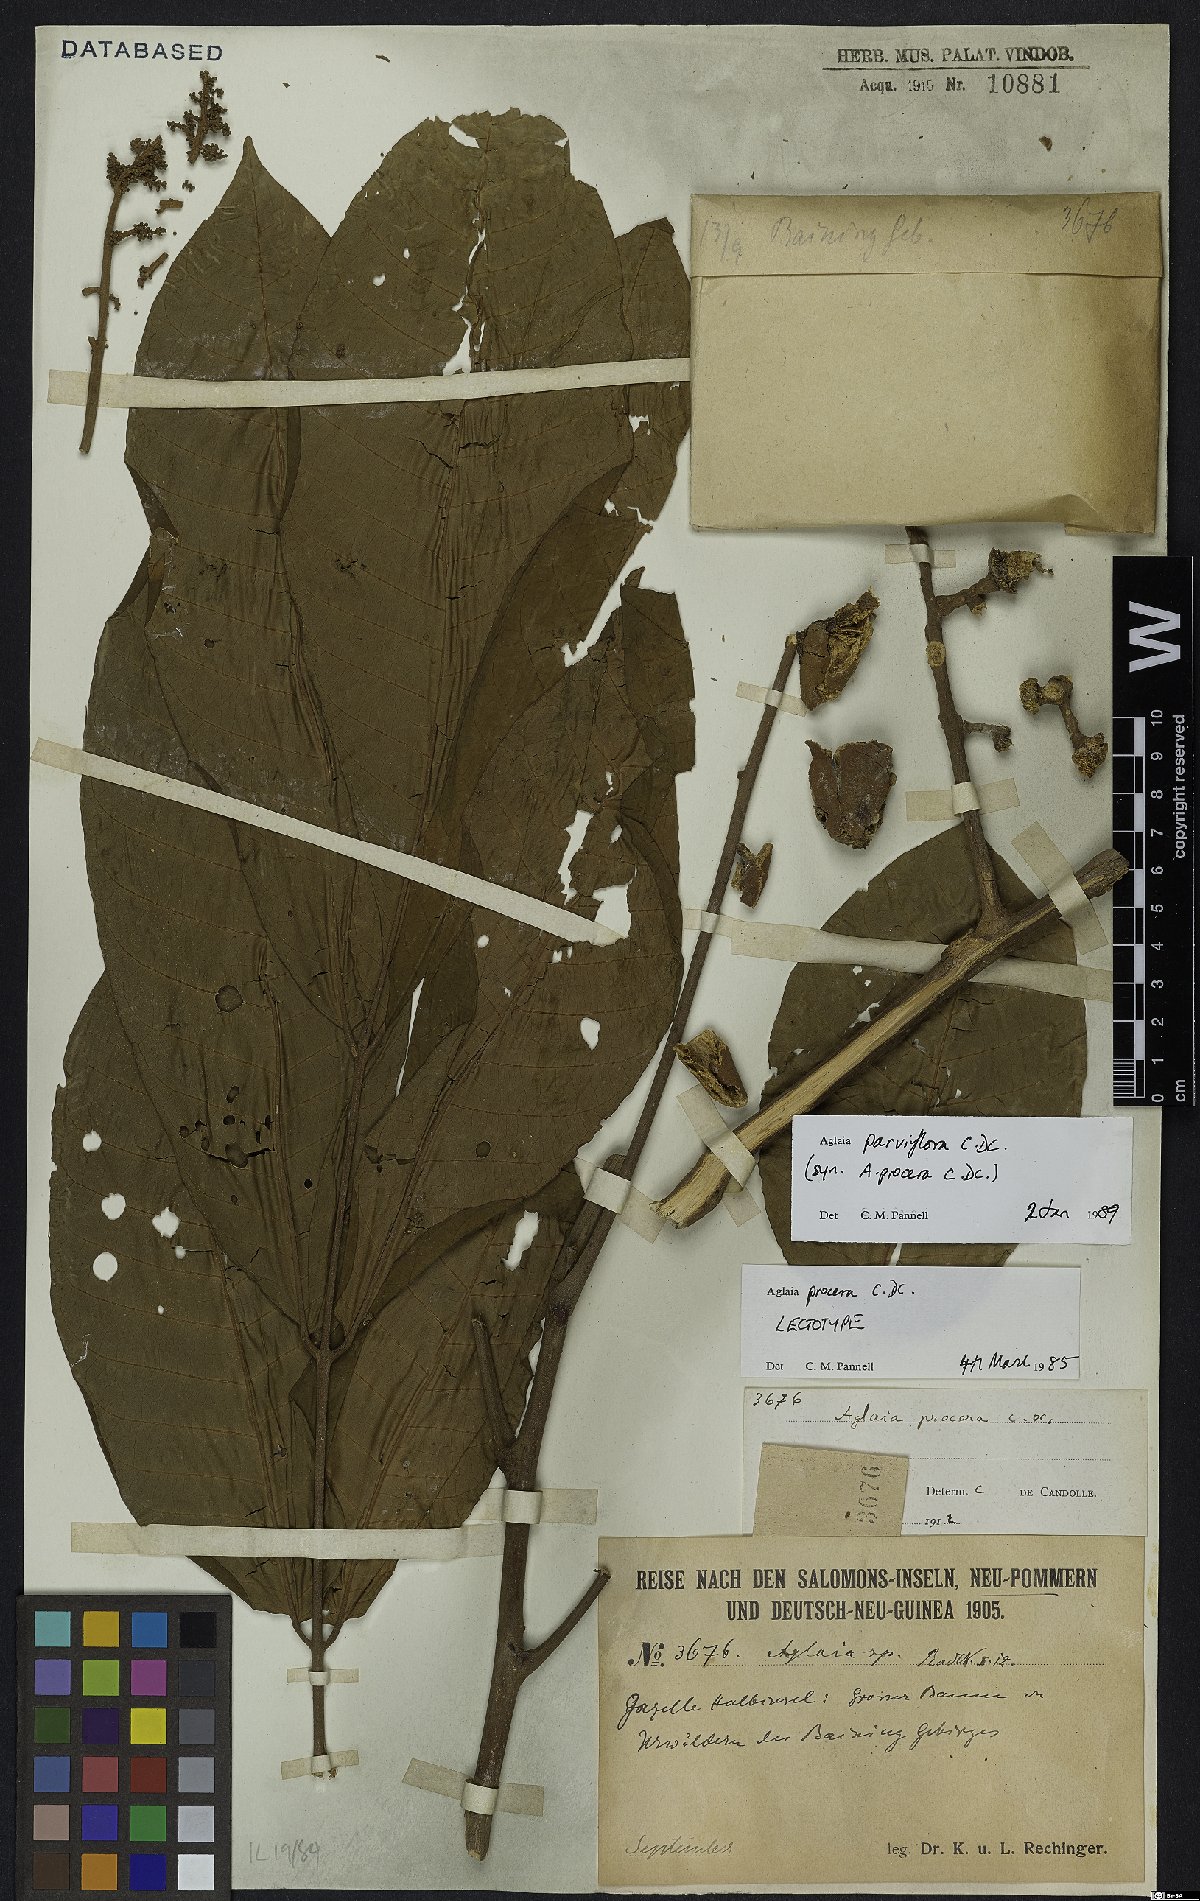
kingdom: Plantae
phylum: Tracheophyta
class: Magnoliopsida
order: Sapindales
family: Meliaceae
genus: Aglaia
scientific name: Aglaia parviflora
